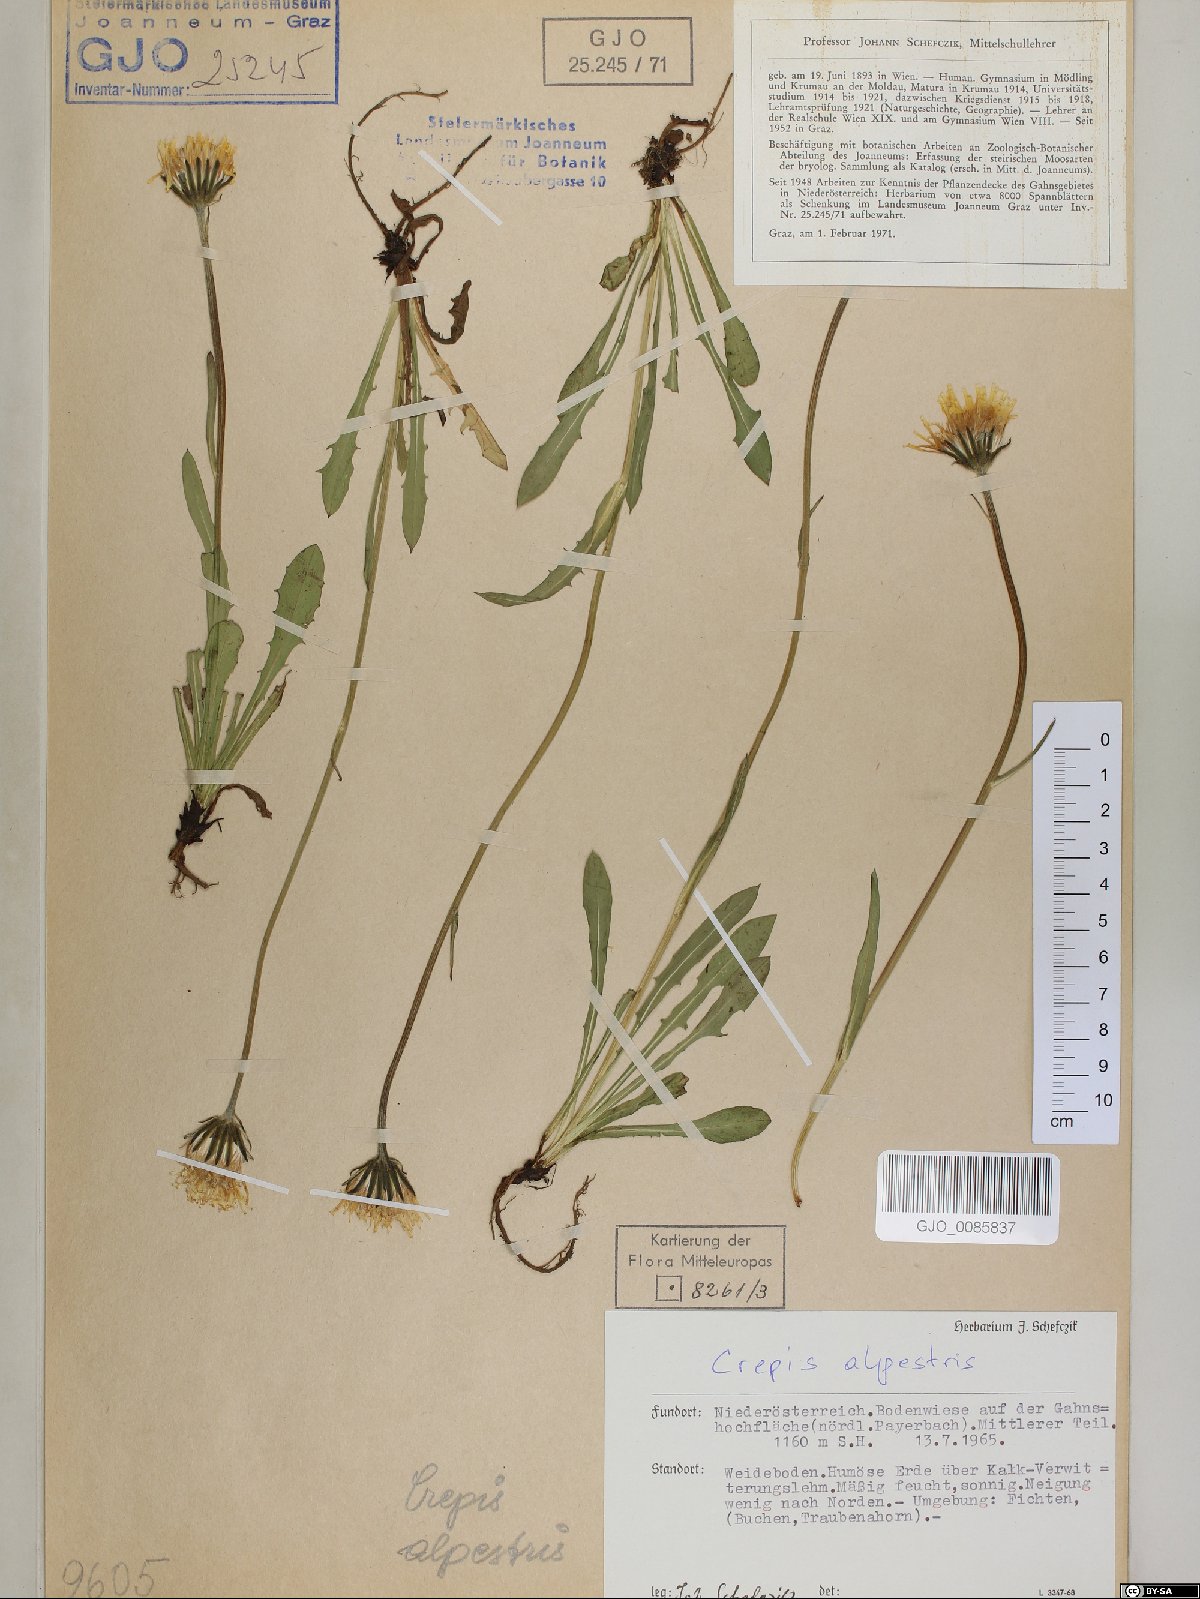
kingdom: Plantae
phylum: Tracheophyta
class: Magnoliopsida
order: Asterales
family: Asteraceae
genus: Crepis
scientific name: Crepis alpestris
